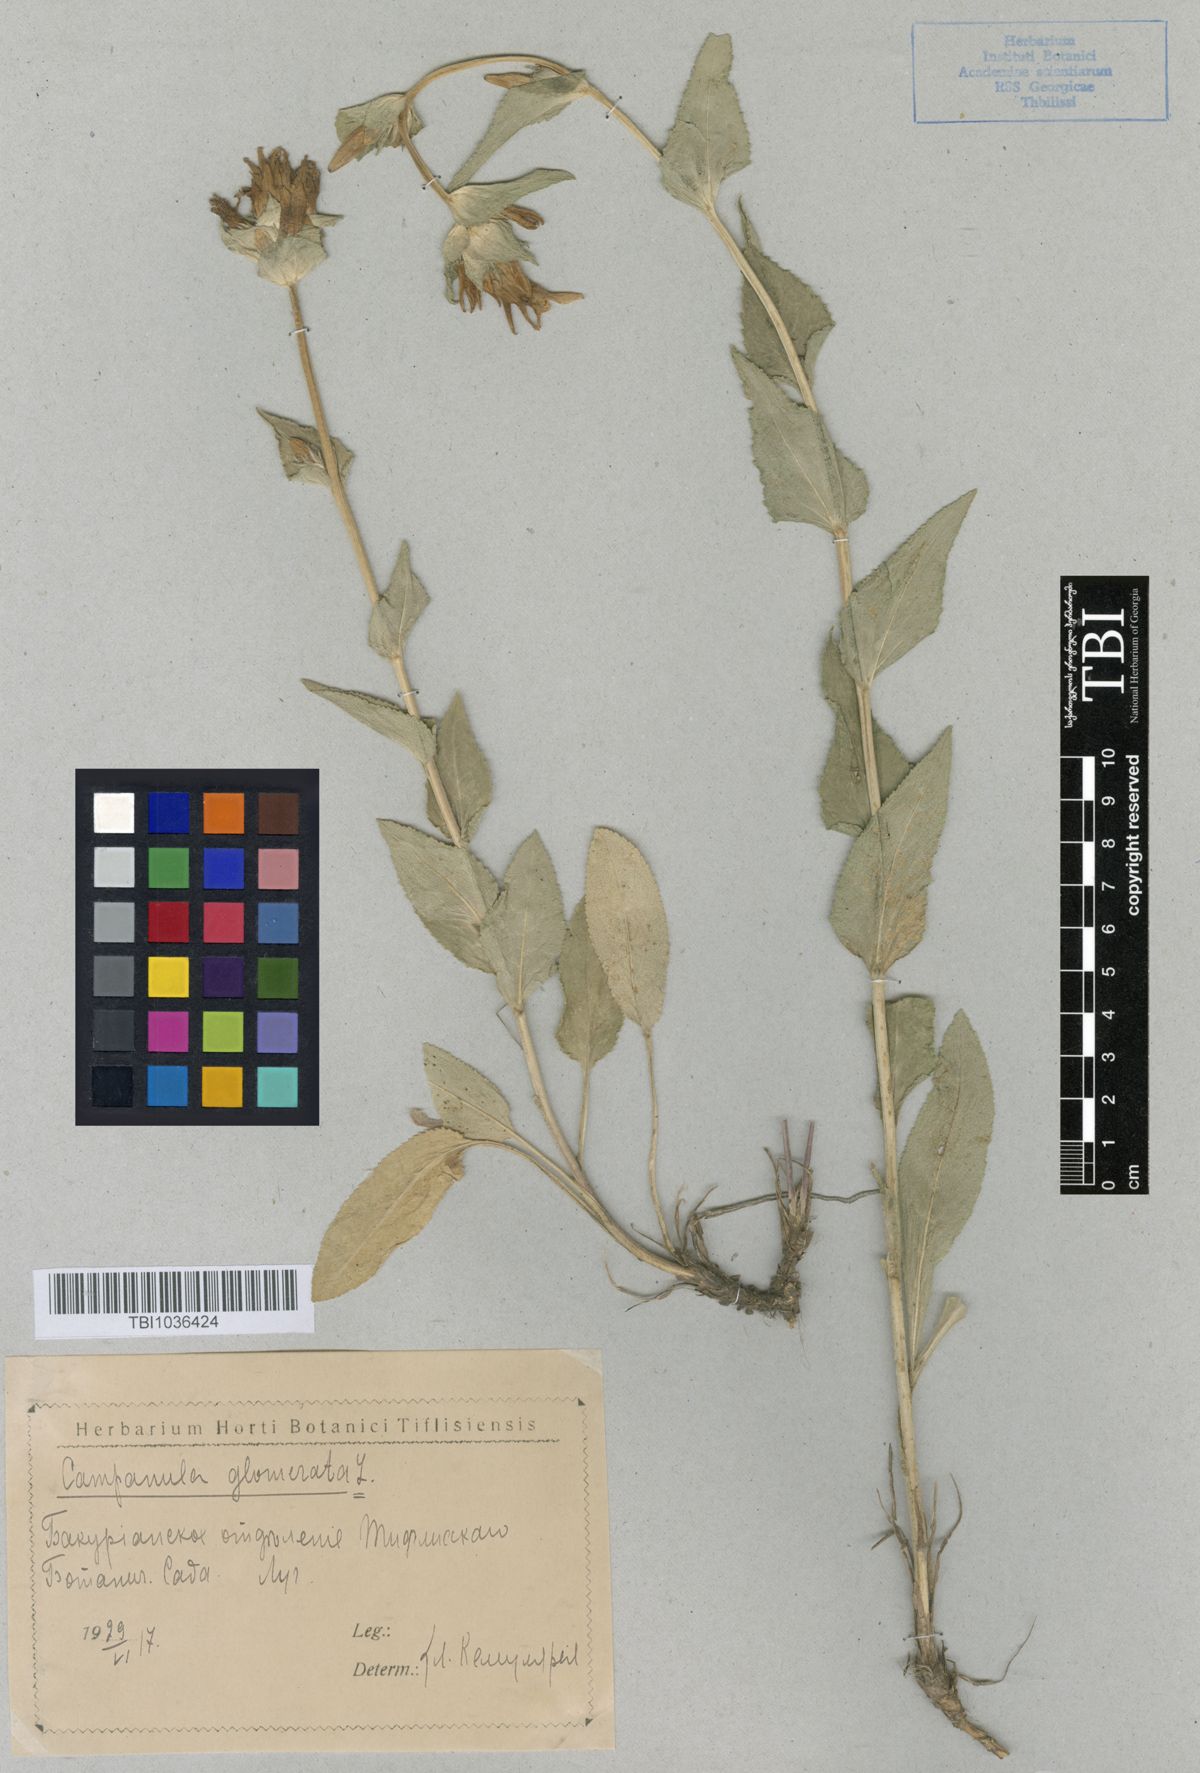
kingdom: Plantae
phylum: Tracheophyta
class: Magnoliopsida
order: Asterales
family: Campanulaceae
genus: Campanula
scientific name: Campanula glomerata
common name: Clustered bellflower
